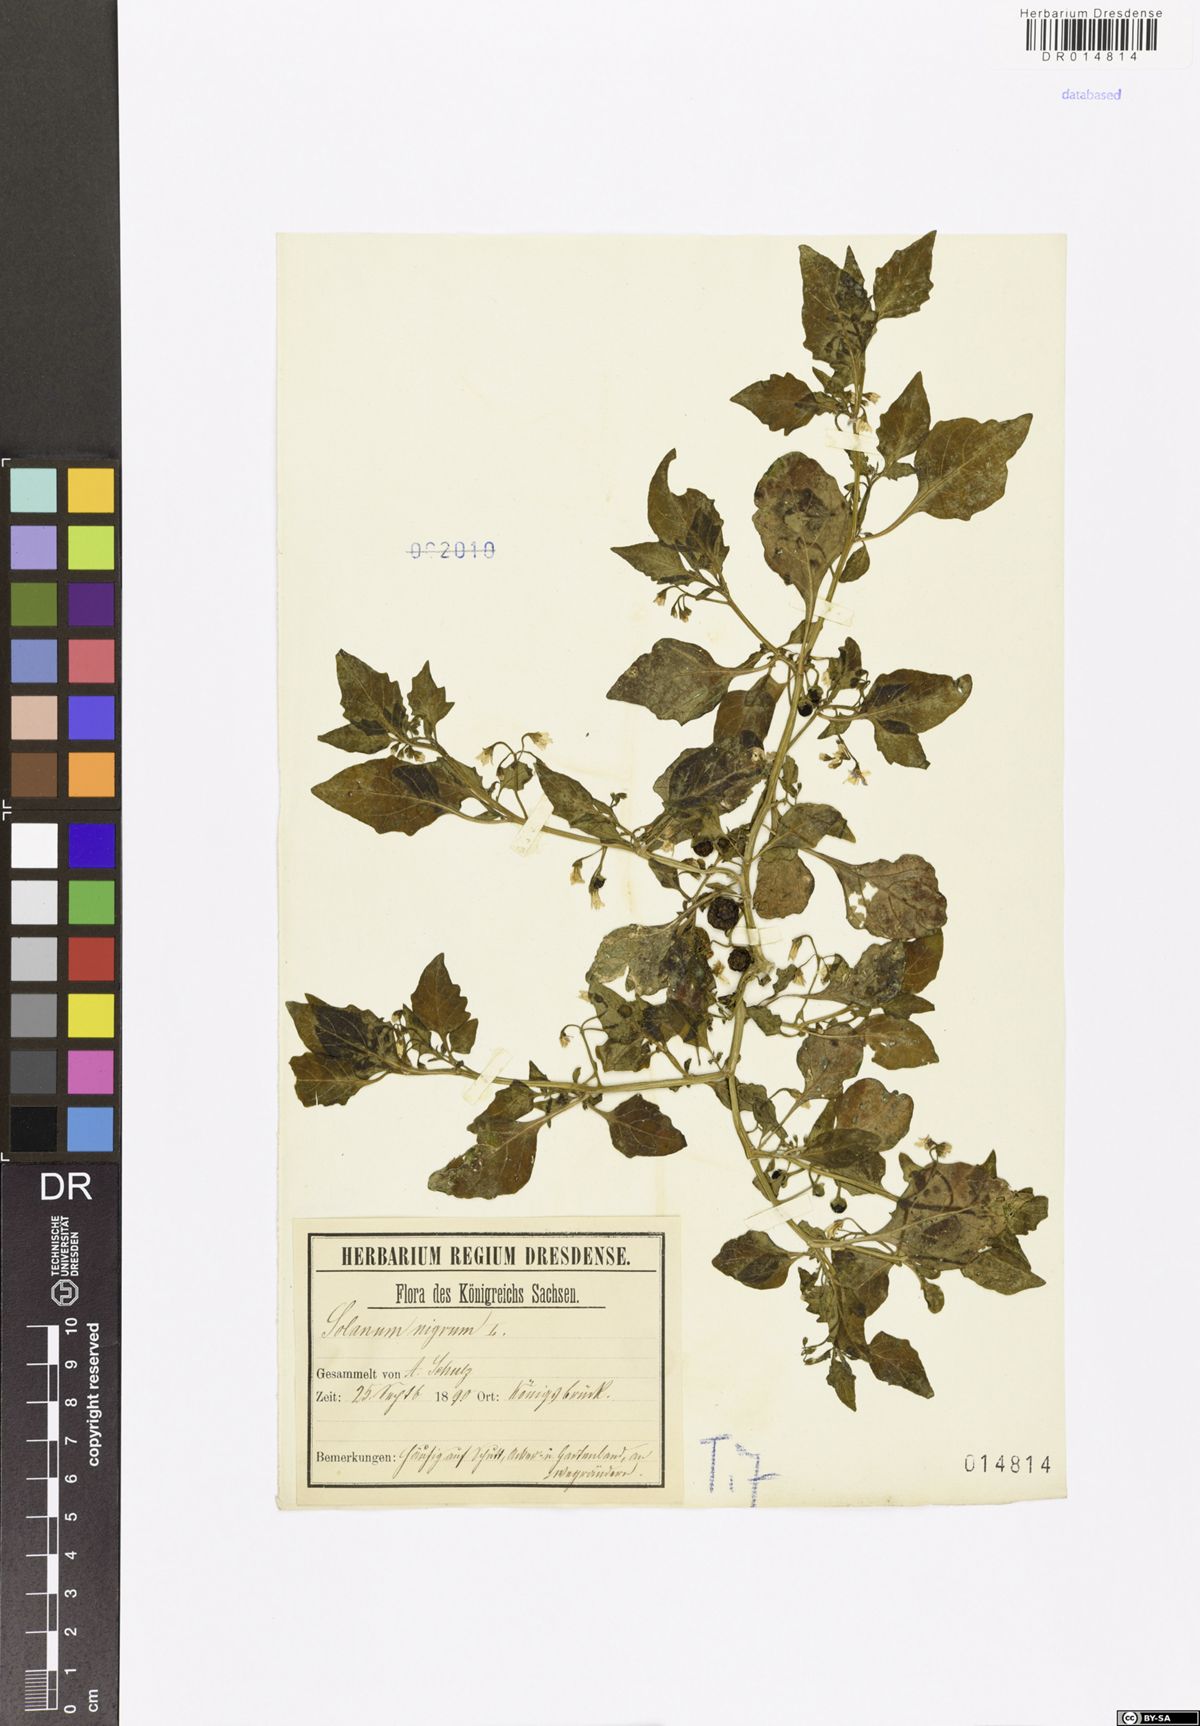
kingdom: Plantae
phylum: Tracheophyta
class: Magnoliopsida
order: Solanales
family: Solanaceae
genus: Solanum
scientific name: Solanum nigrum
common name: Black nightshade
